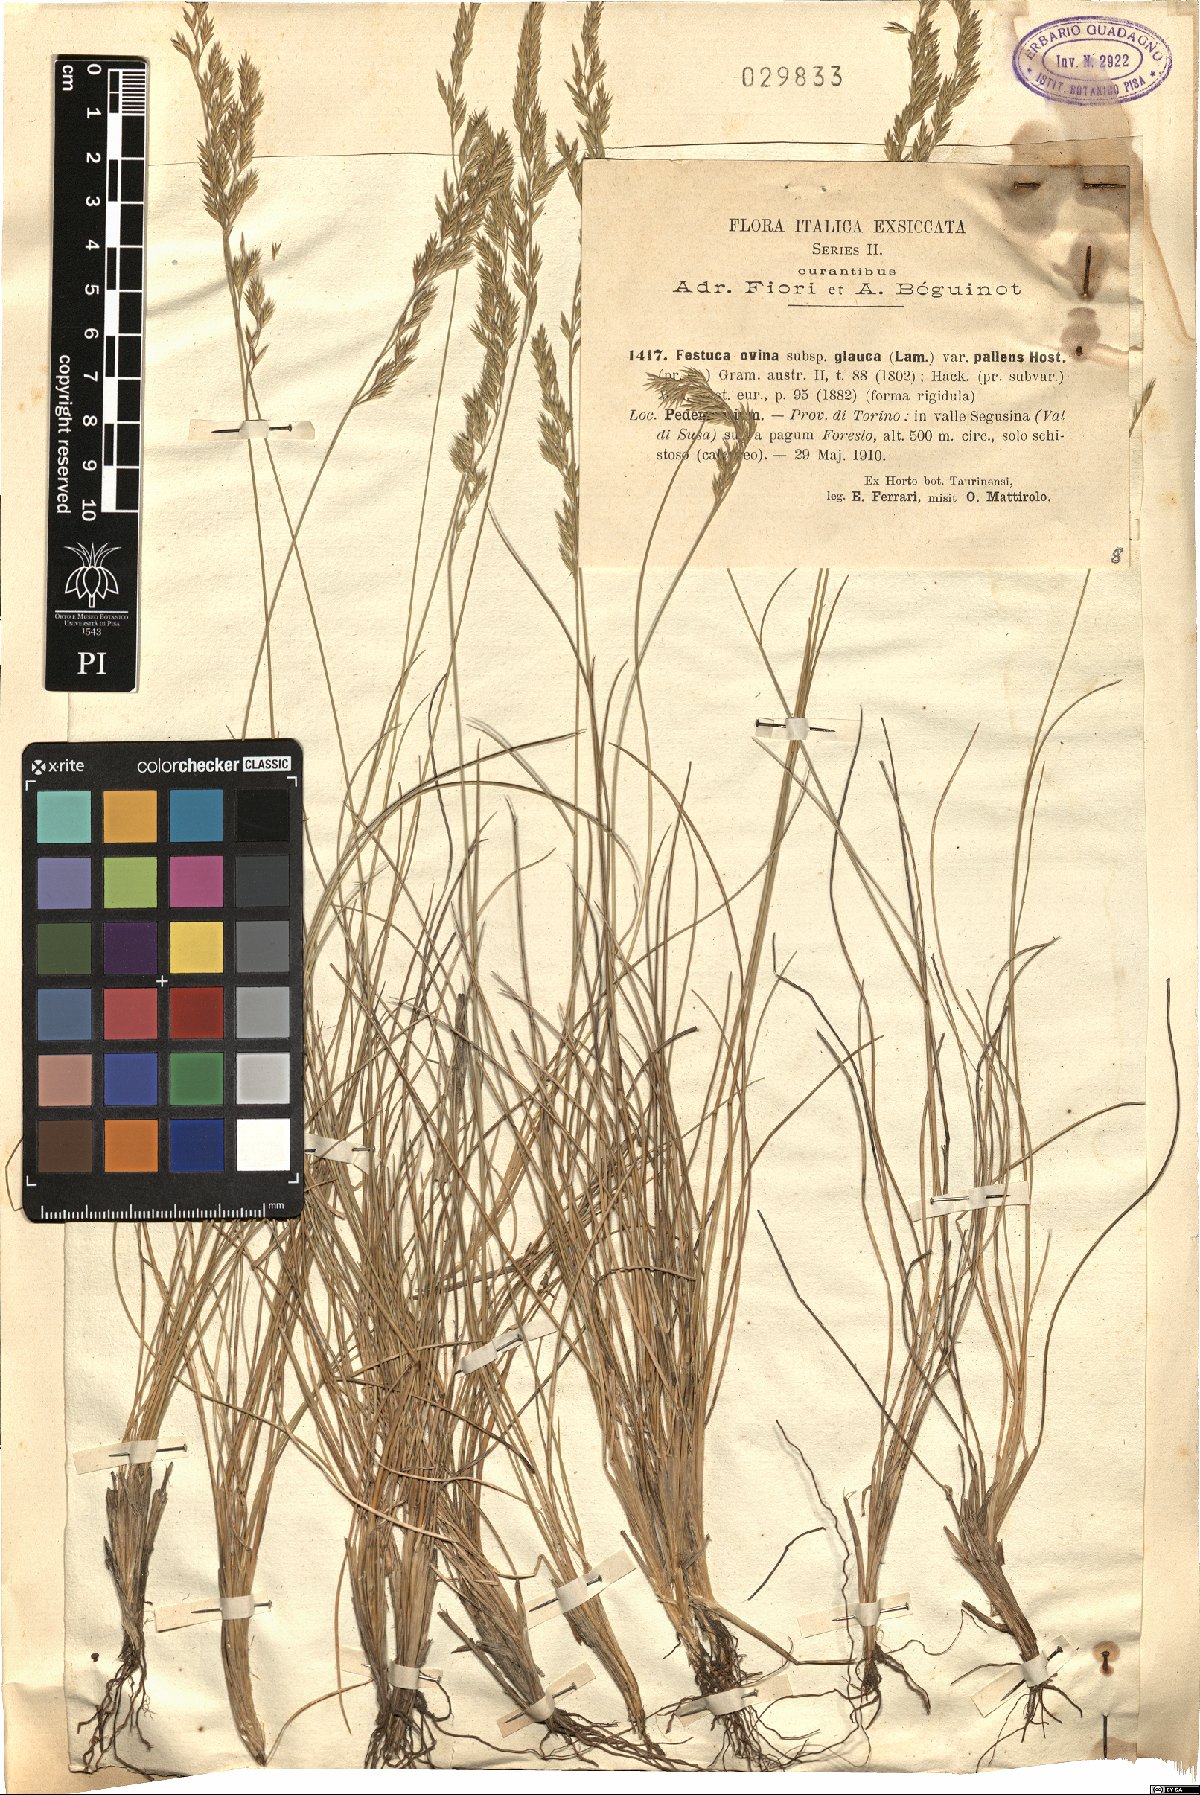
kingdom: Plantae
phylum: Tracheophyta
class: Liliopsida
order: Poales
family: Poaceae
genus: Festuca
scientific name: Festuca arvernensis
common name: Field fescue
